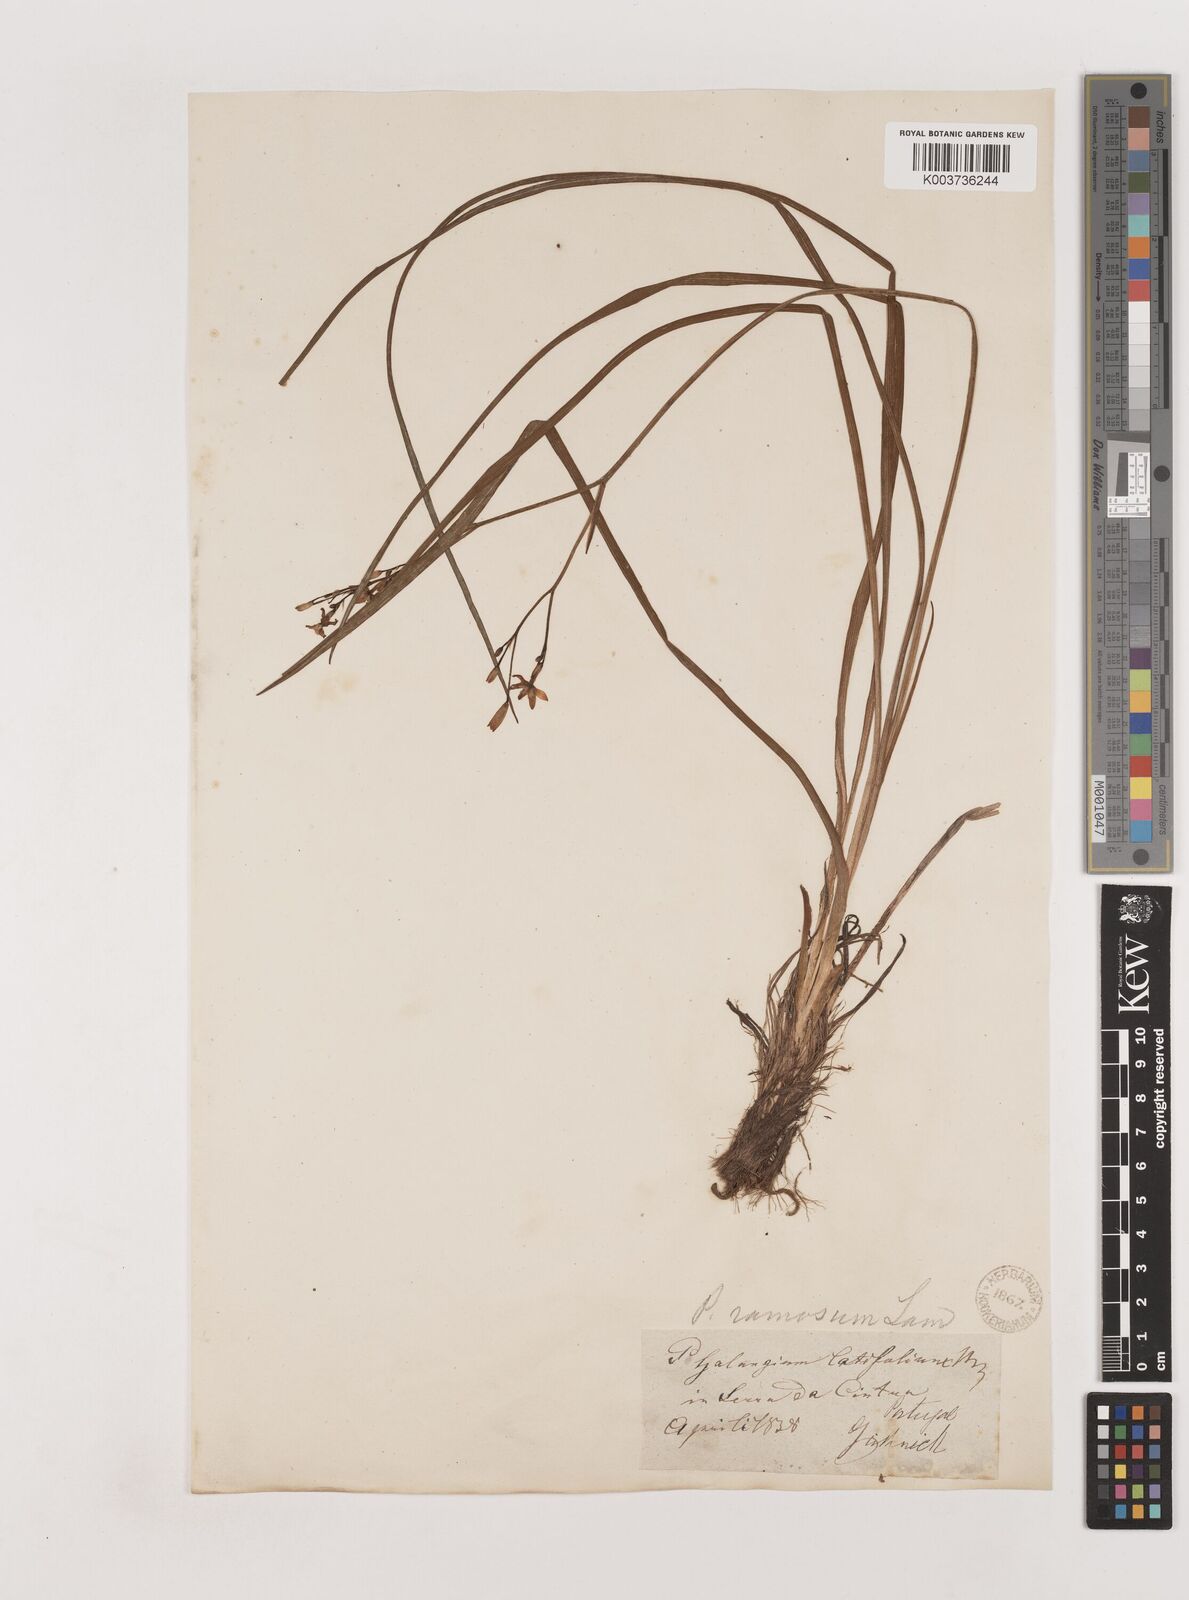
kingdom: Plantae
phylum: Tracheophyta
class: Liliopsida
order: Asparagales
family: Asparagaceae
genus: Anthericum
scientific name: Anthericum ramosum
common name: Branched st. bernard's-lily
